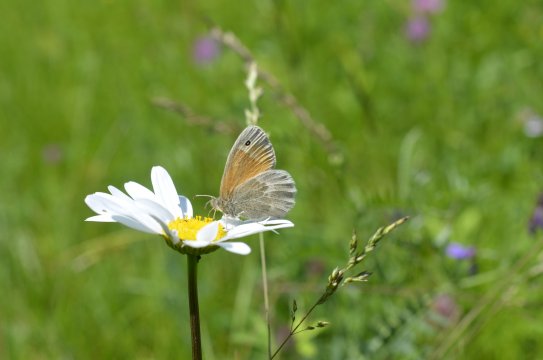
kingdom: Animalia
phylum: Arthropoda
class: Insecta
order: Lepidoptera
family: Nymphalidae
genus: Coenonympha
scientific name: Coenonympha tullia
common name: Large Heath
